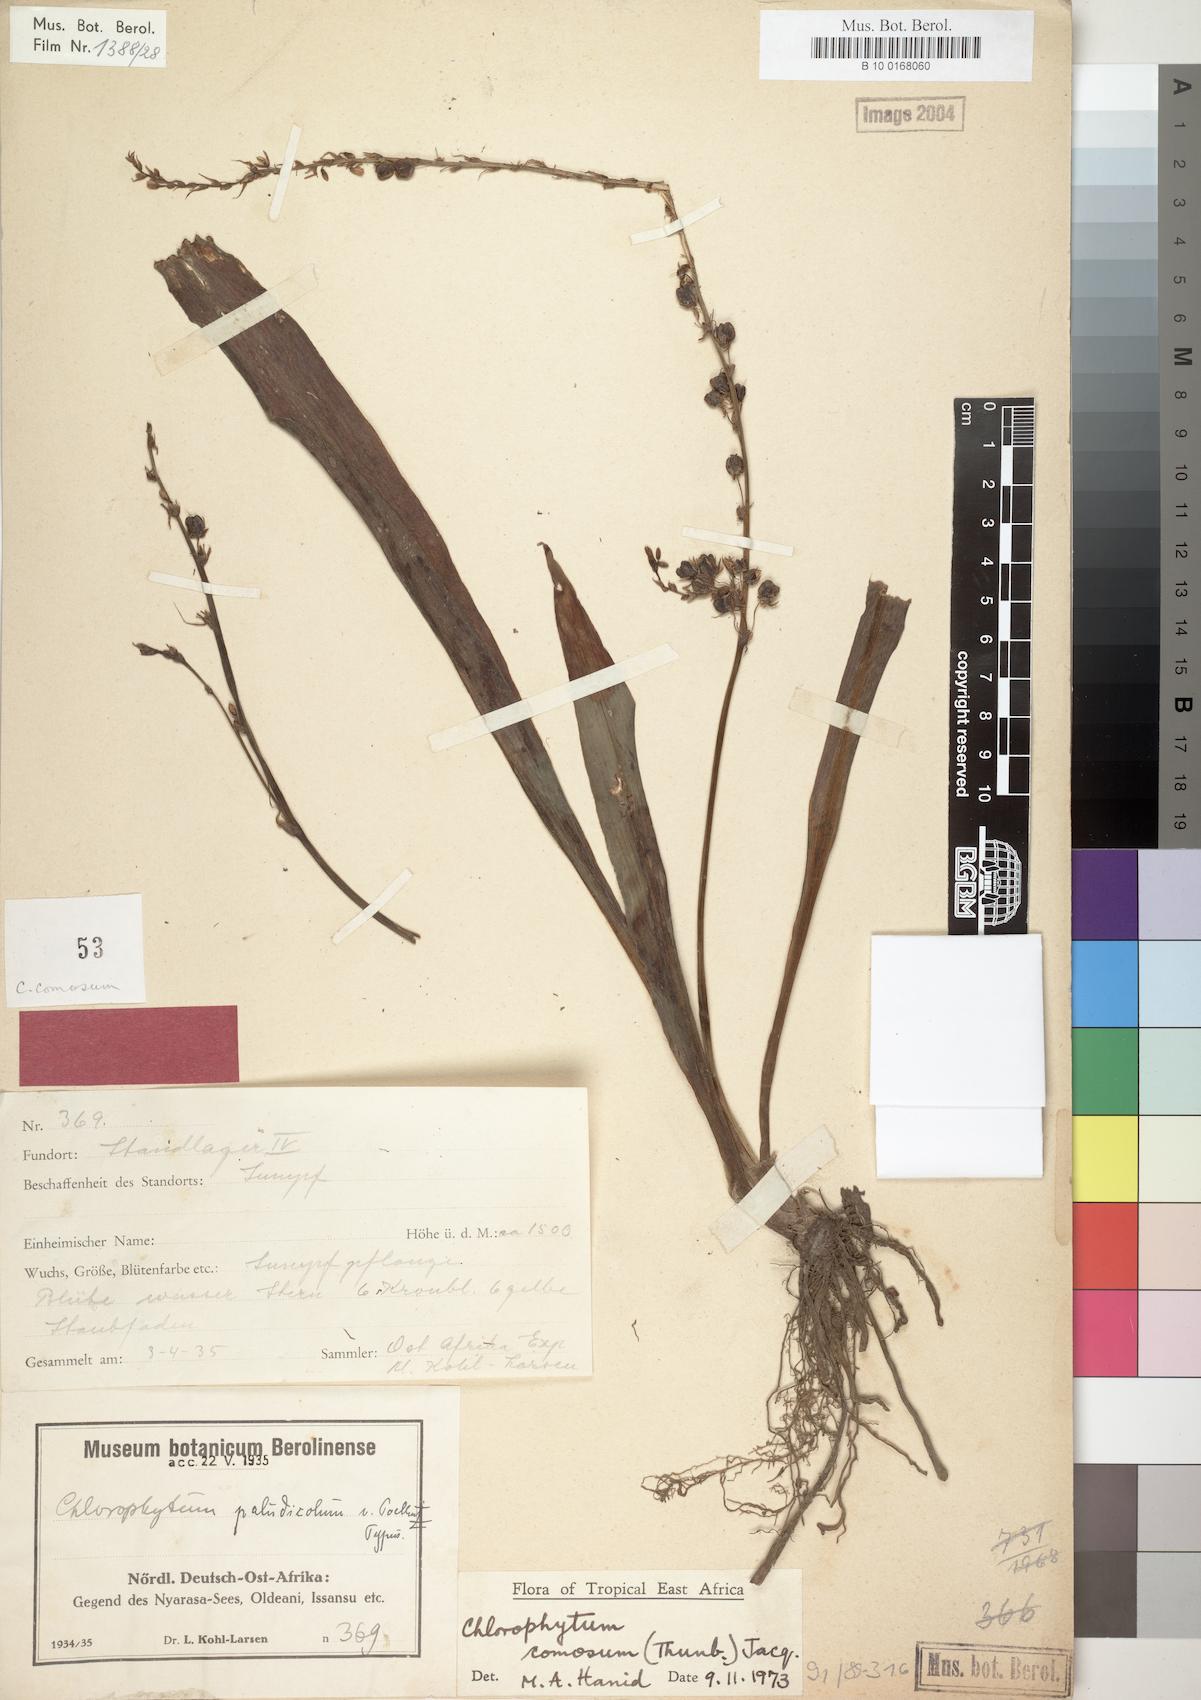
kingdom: Plantae
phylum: Tracheophyta
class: Liliopsida
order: Asparagales
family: Asparagaceae
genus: Chlorophytum
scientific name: Chlorophytum comosum
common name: Spider plant
